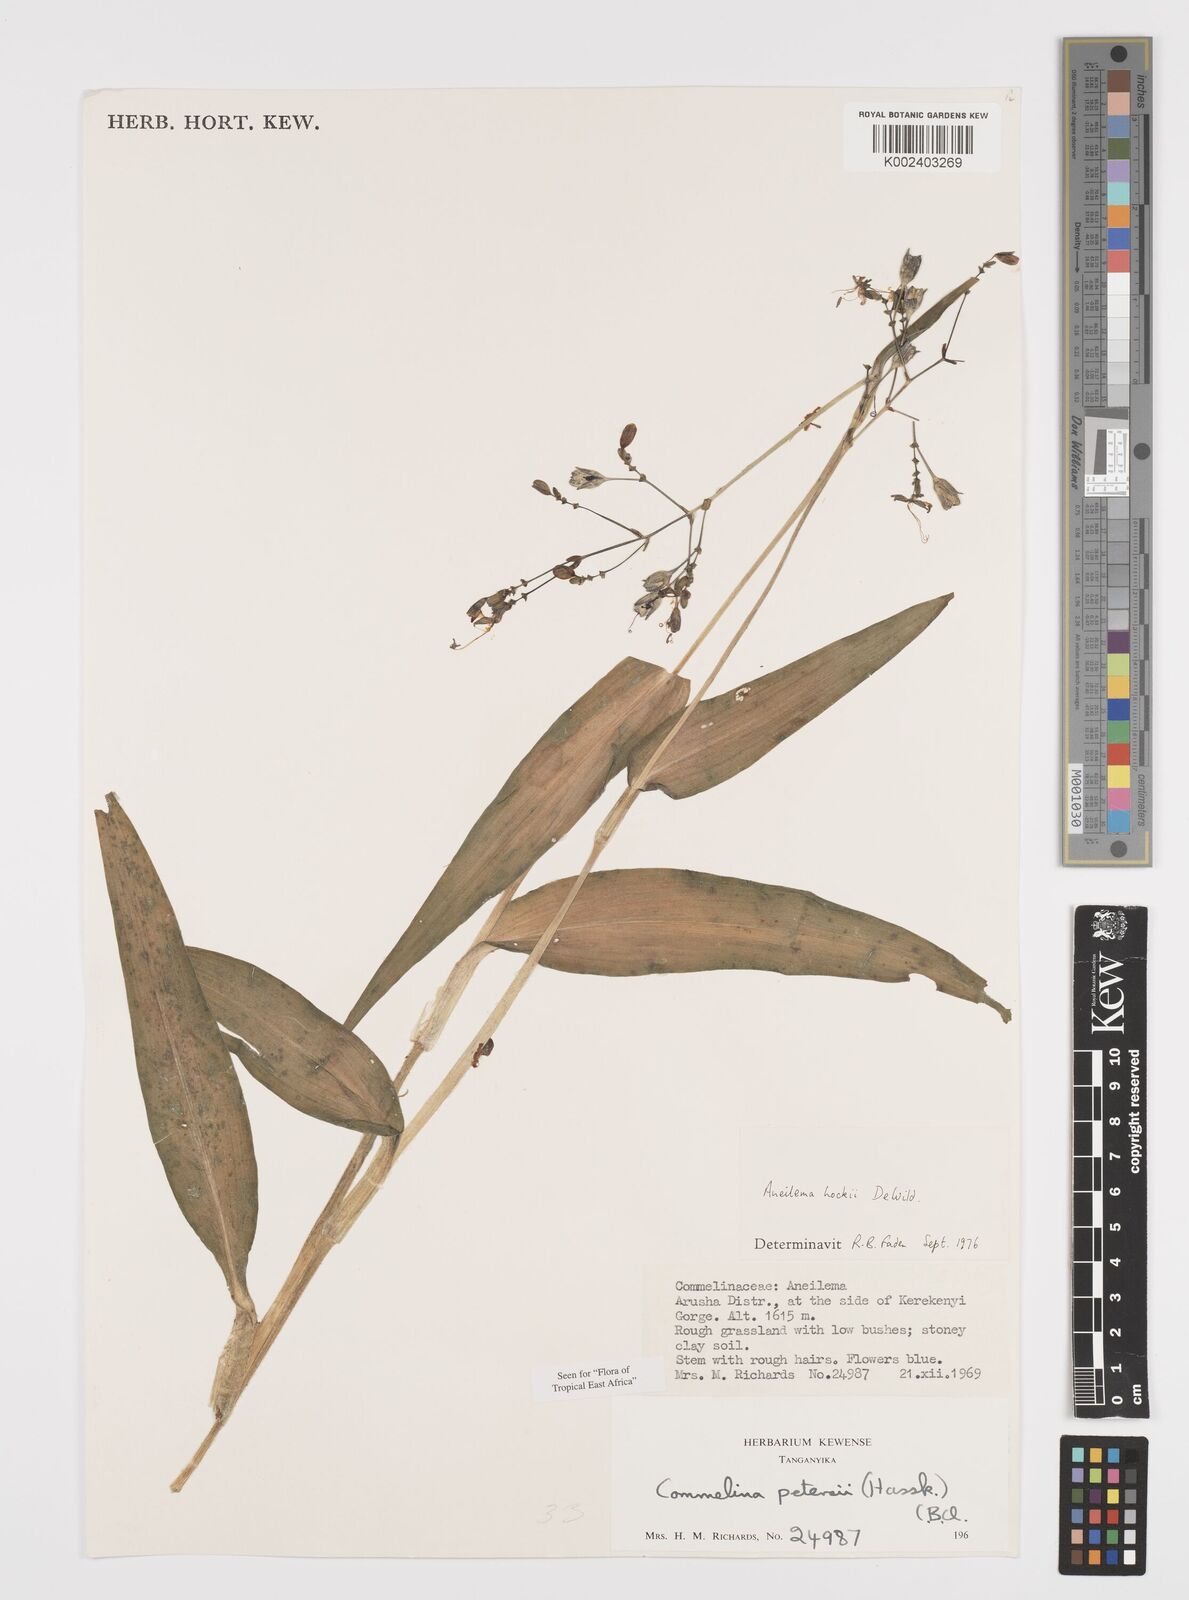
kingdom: Plantae
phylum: Tracheophyta
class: Liliopsida
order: Commelinales
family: Commelinaceae
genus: Aneilema
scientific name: Aneilema hockii
